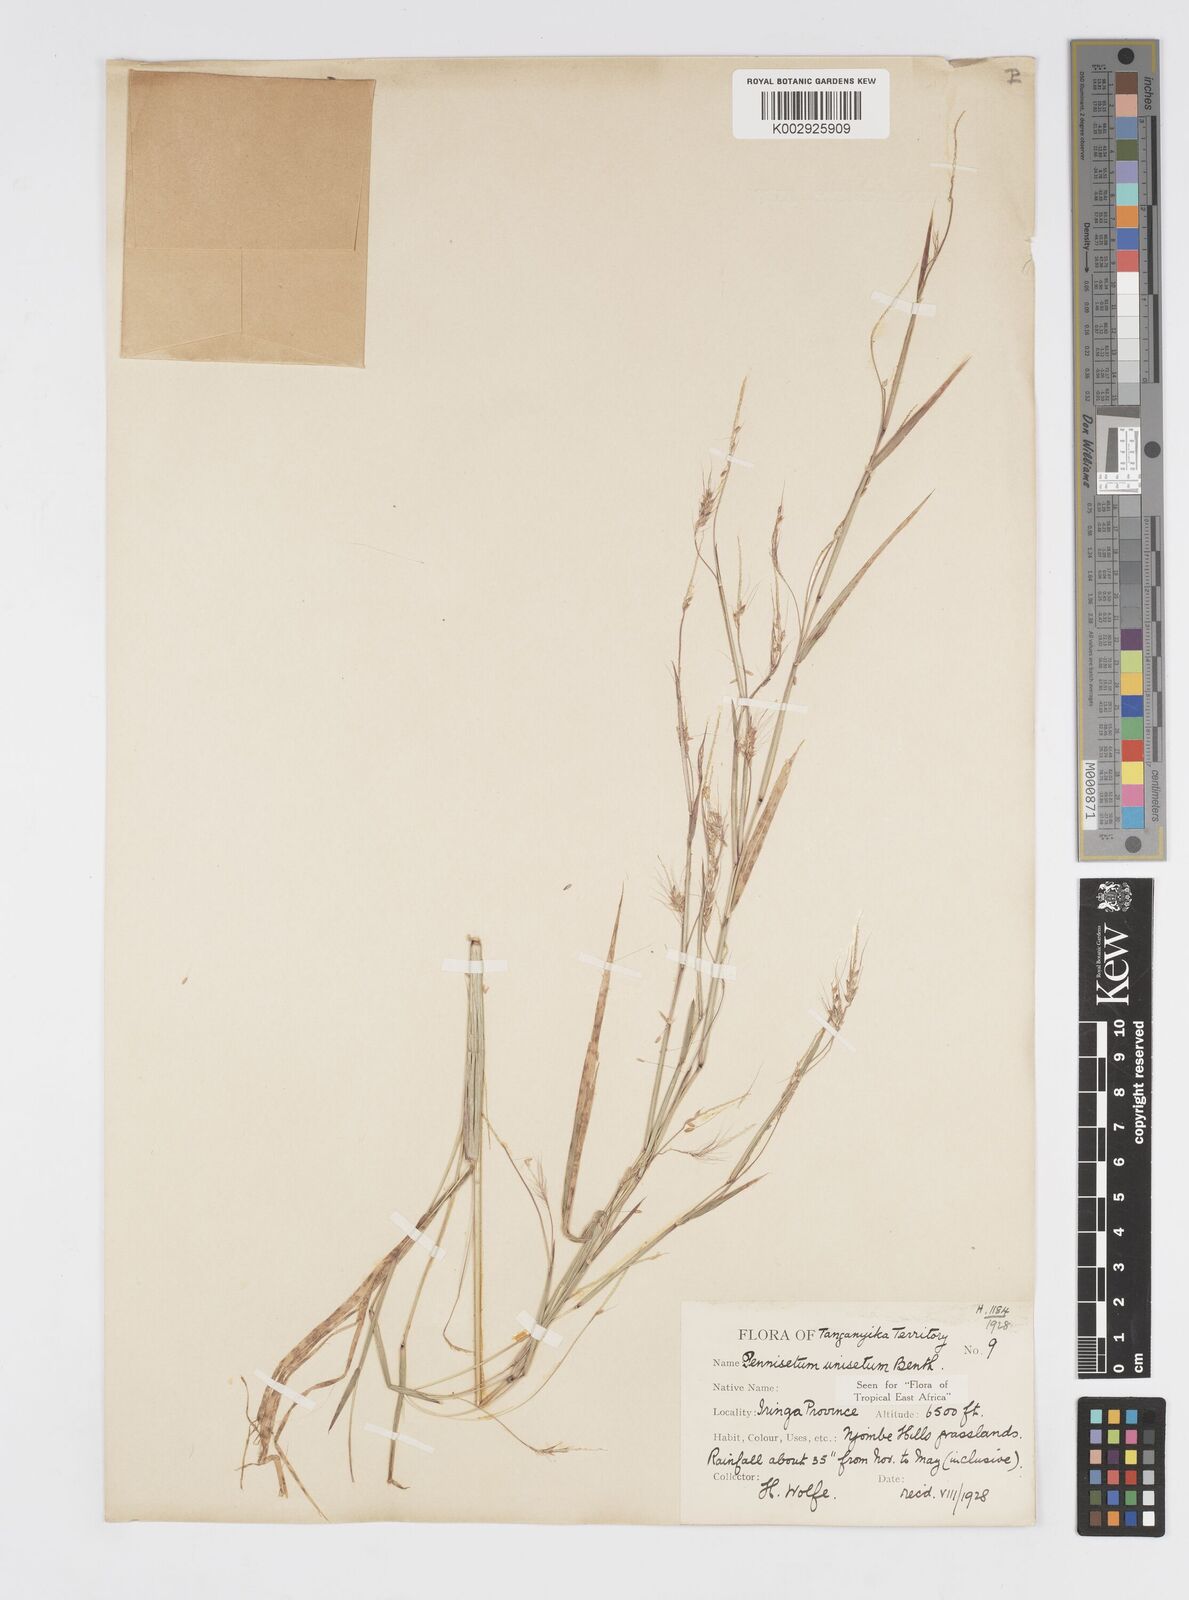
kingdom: Plantae
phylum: Tracheophyta
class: Liliopsida
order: Poales
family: Poaceae
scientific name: Poaceae
